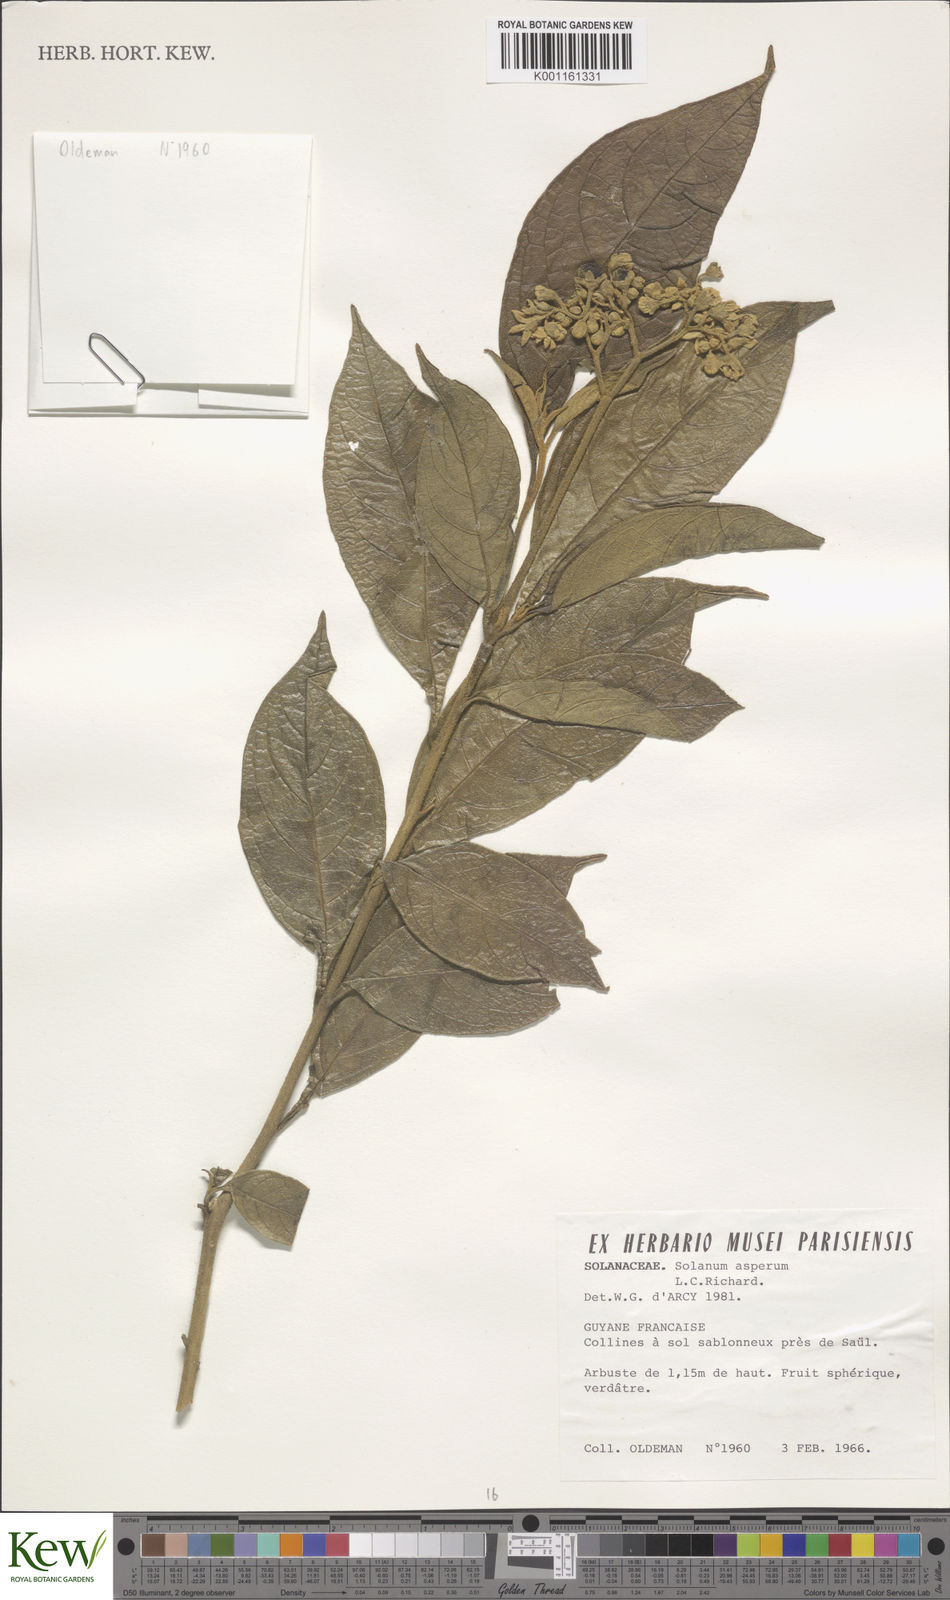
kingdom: Plantae
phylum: Tracheophyta
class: Magnoliopsida
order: Solanales
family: Solanaceae
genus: Solanum
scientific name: Solanum asperum
